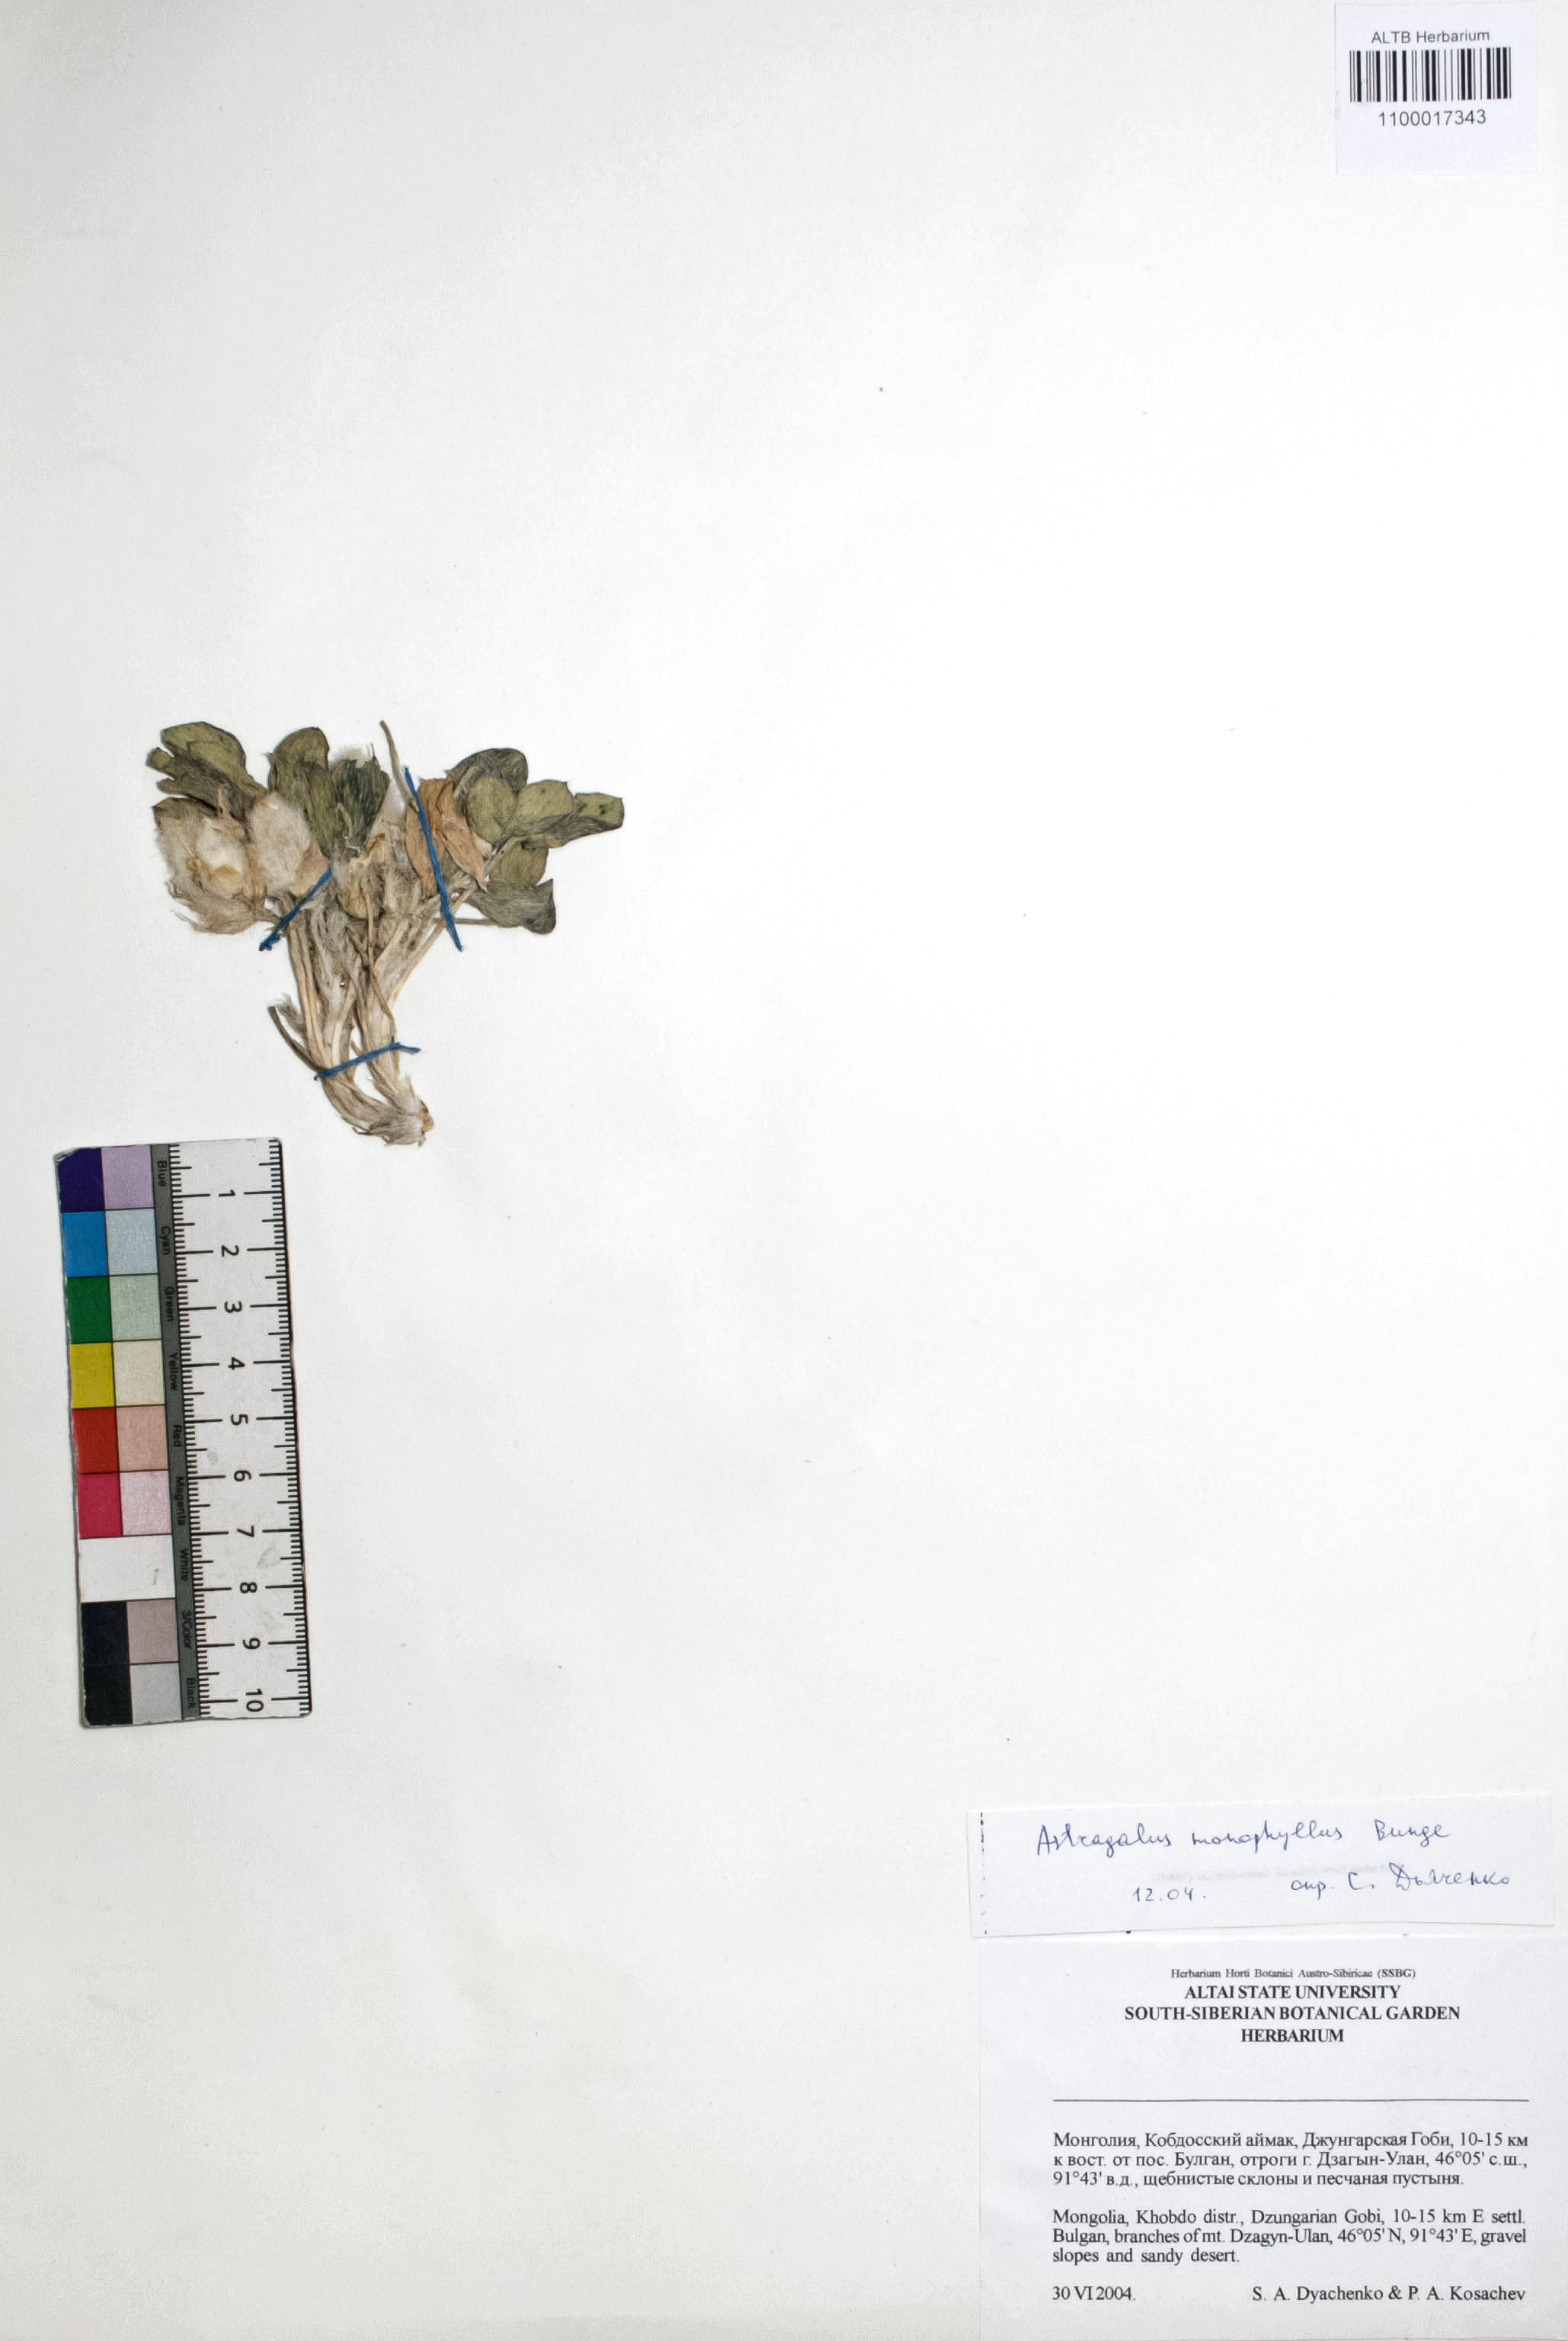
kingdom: Plantae
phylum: Tracheophyta
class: Magnoliopsida
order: Fabales
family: Fabaceae
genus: Astragalus
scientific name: Astragalus monophyllus
